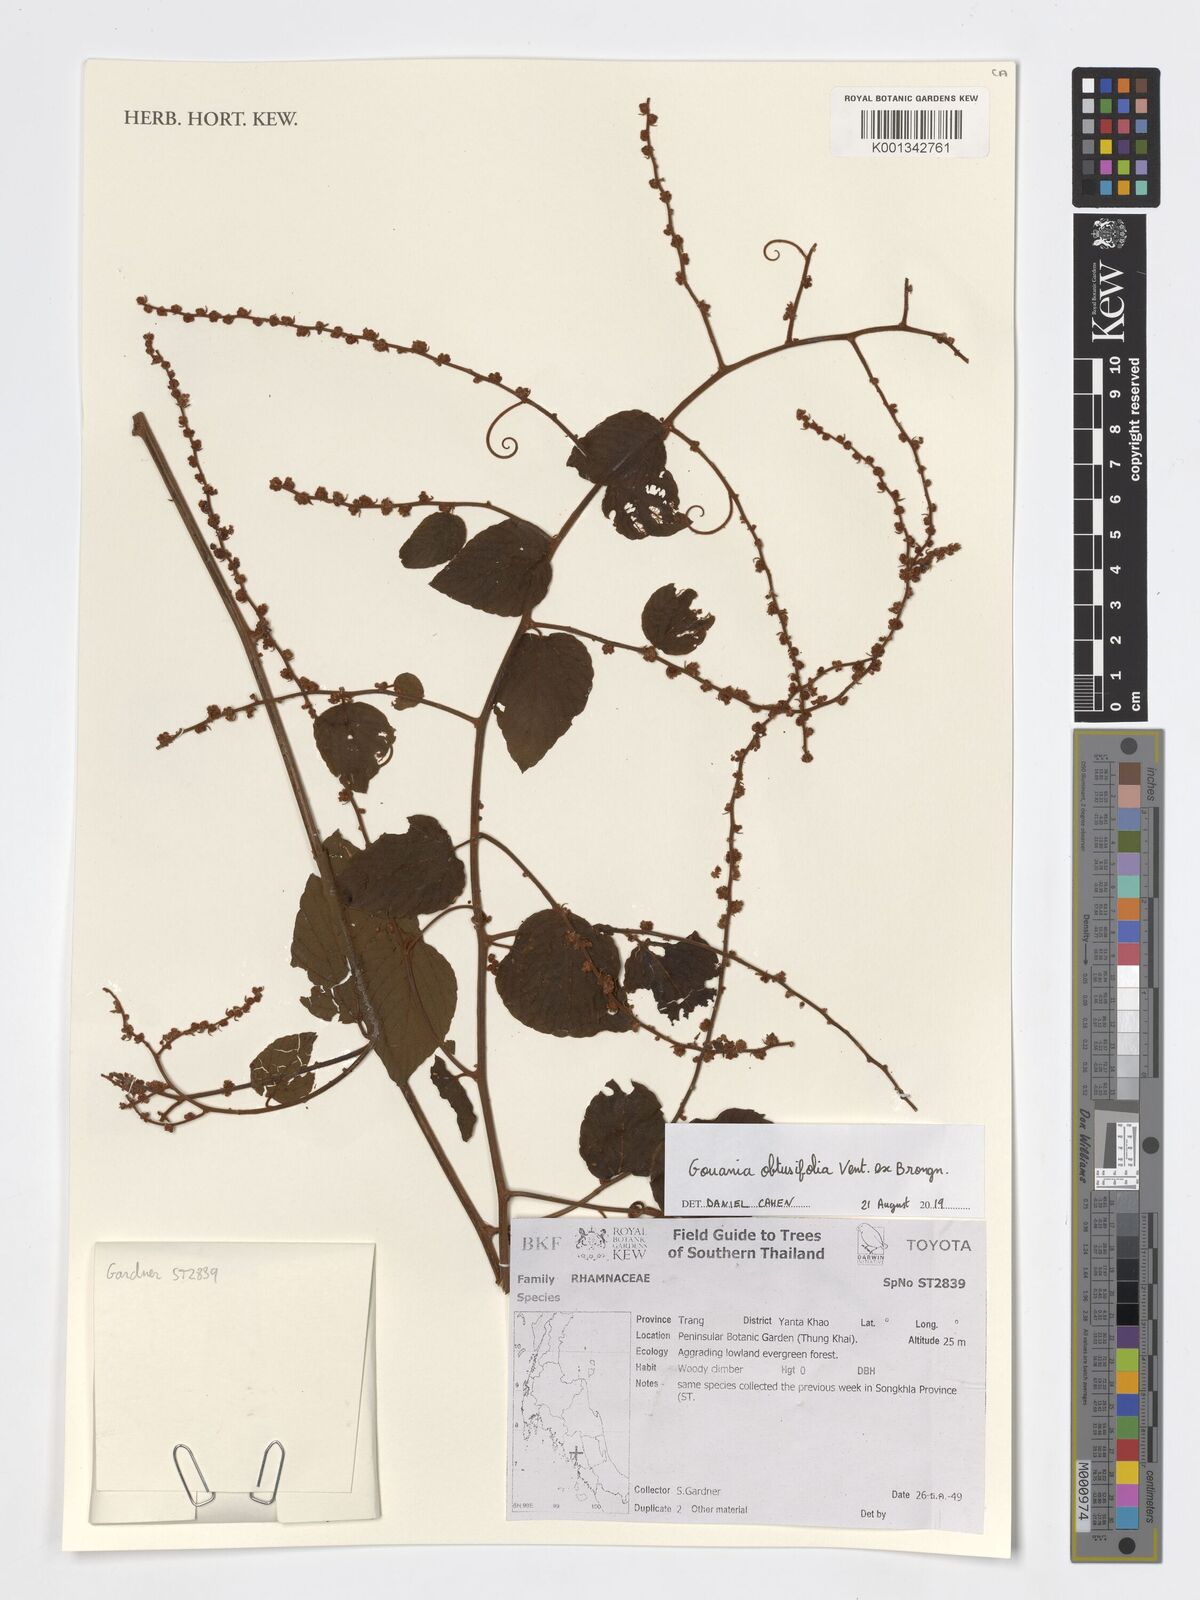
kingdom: Plantae
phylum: Tracheophyta
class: Magnoliopsida
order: Rosales
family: Rhamnaceae
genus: Gouania
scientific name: Gouania obtusifolia
